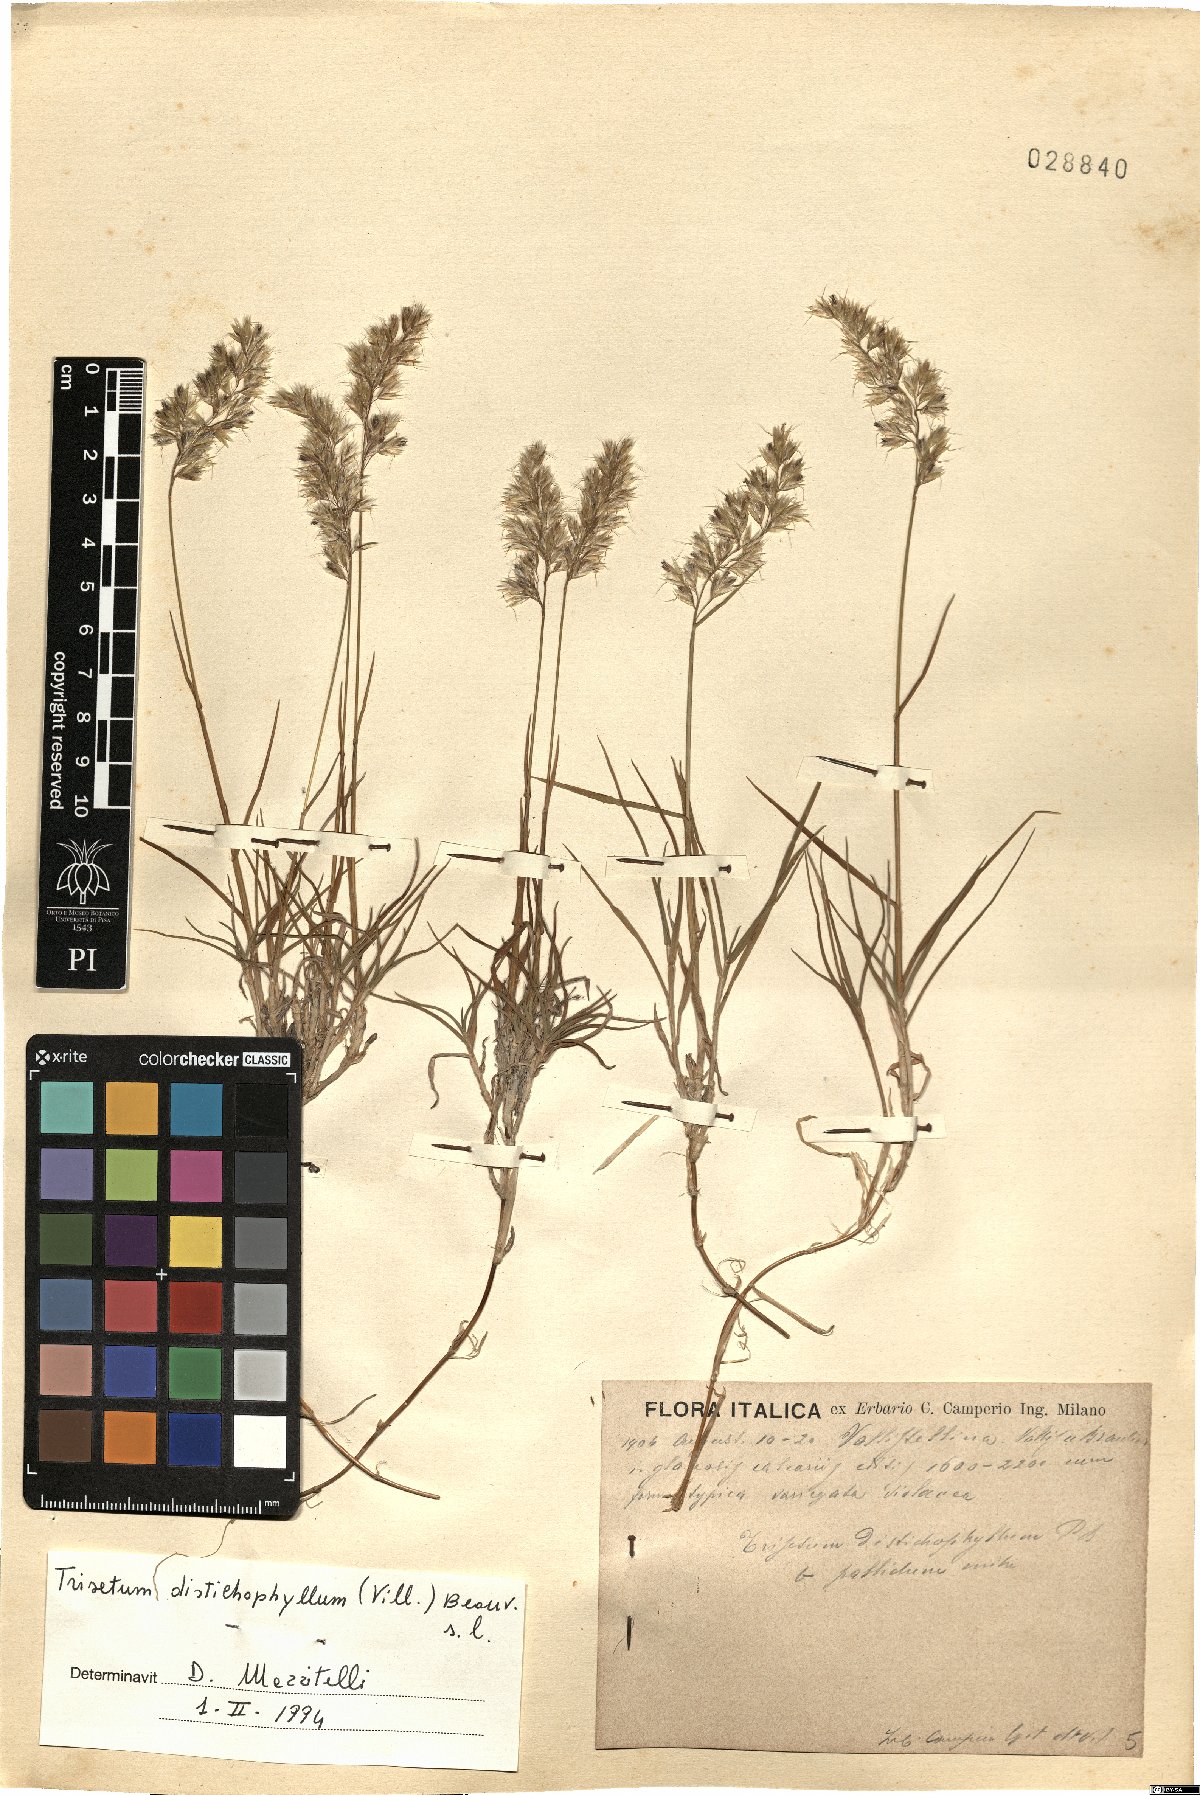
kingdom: Plantae
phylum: Tracheophyta
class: Liliopsida
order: Poales
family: Poaceae
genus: Acrospelion
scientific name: Acrospelion distichophyllum
